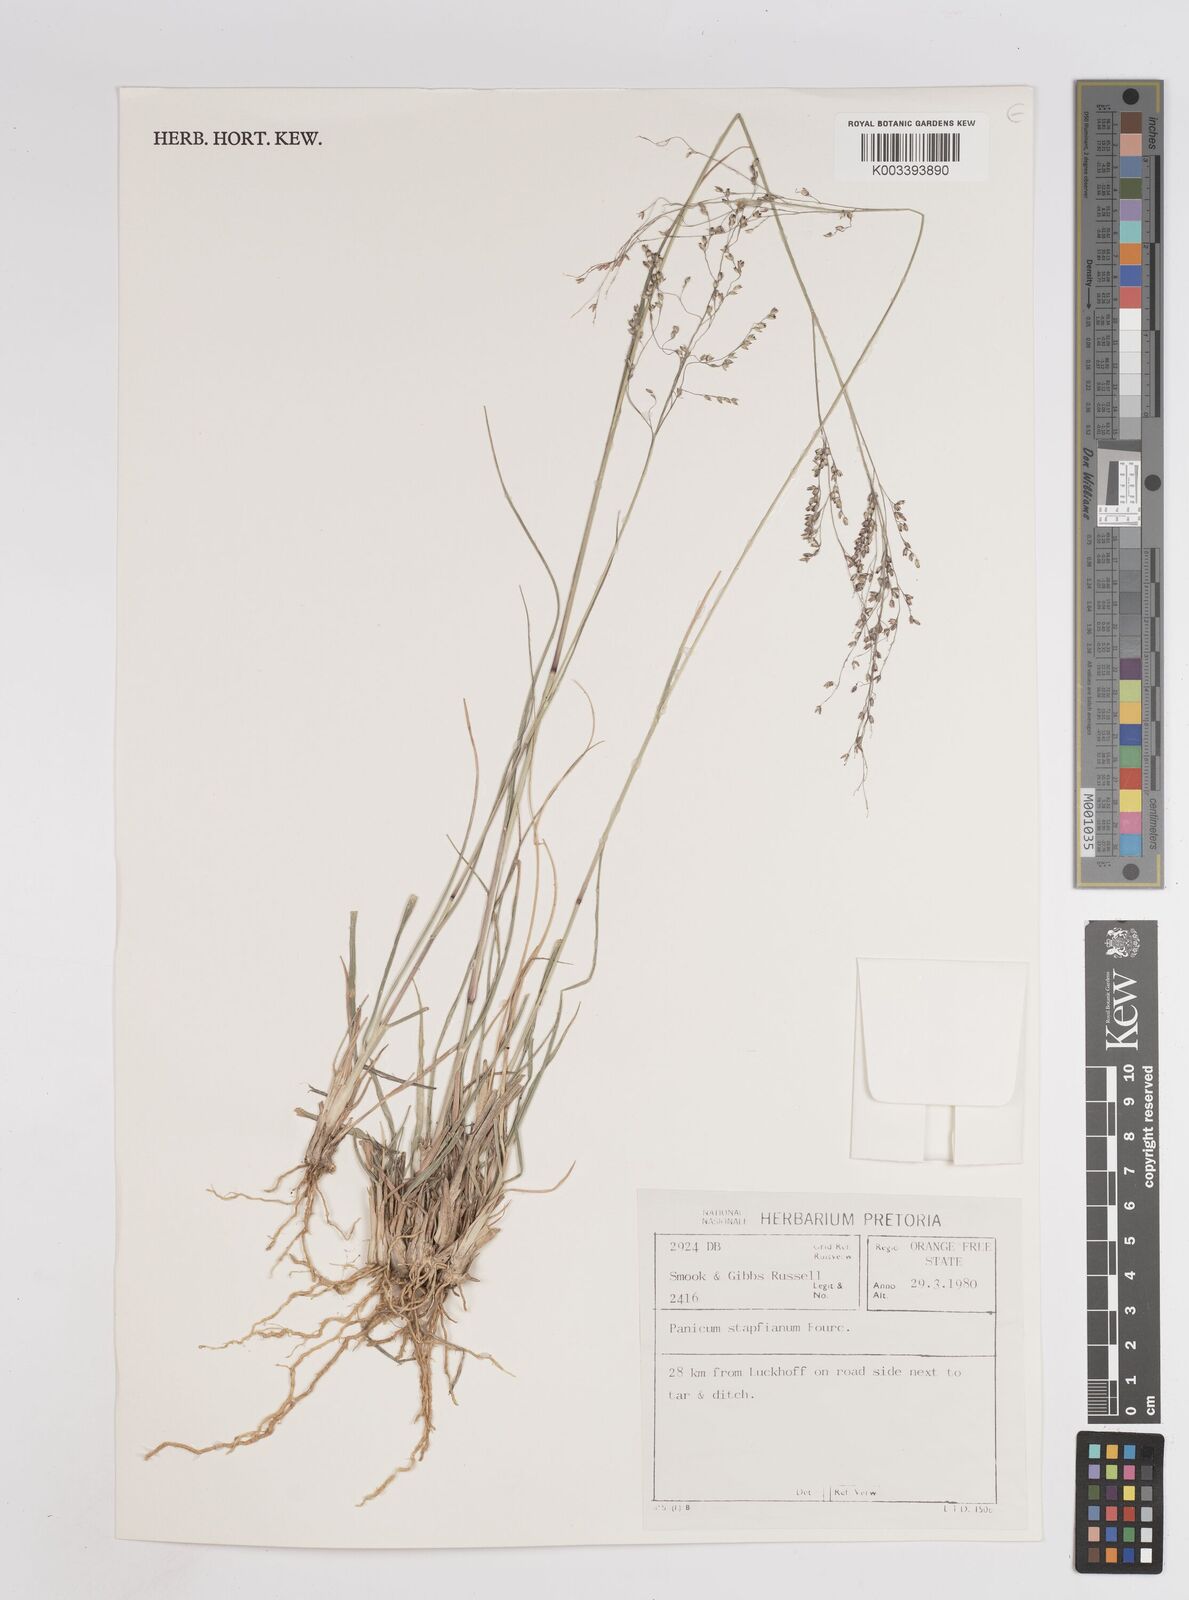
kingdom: Plantae
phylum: Tracheophyta
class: Liliopsida
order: Poales
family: Poaceae
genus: Panicum
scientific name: Panicum stapfianum
